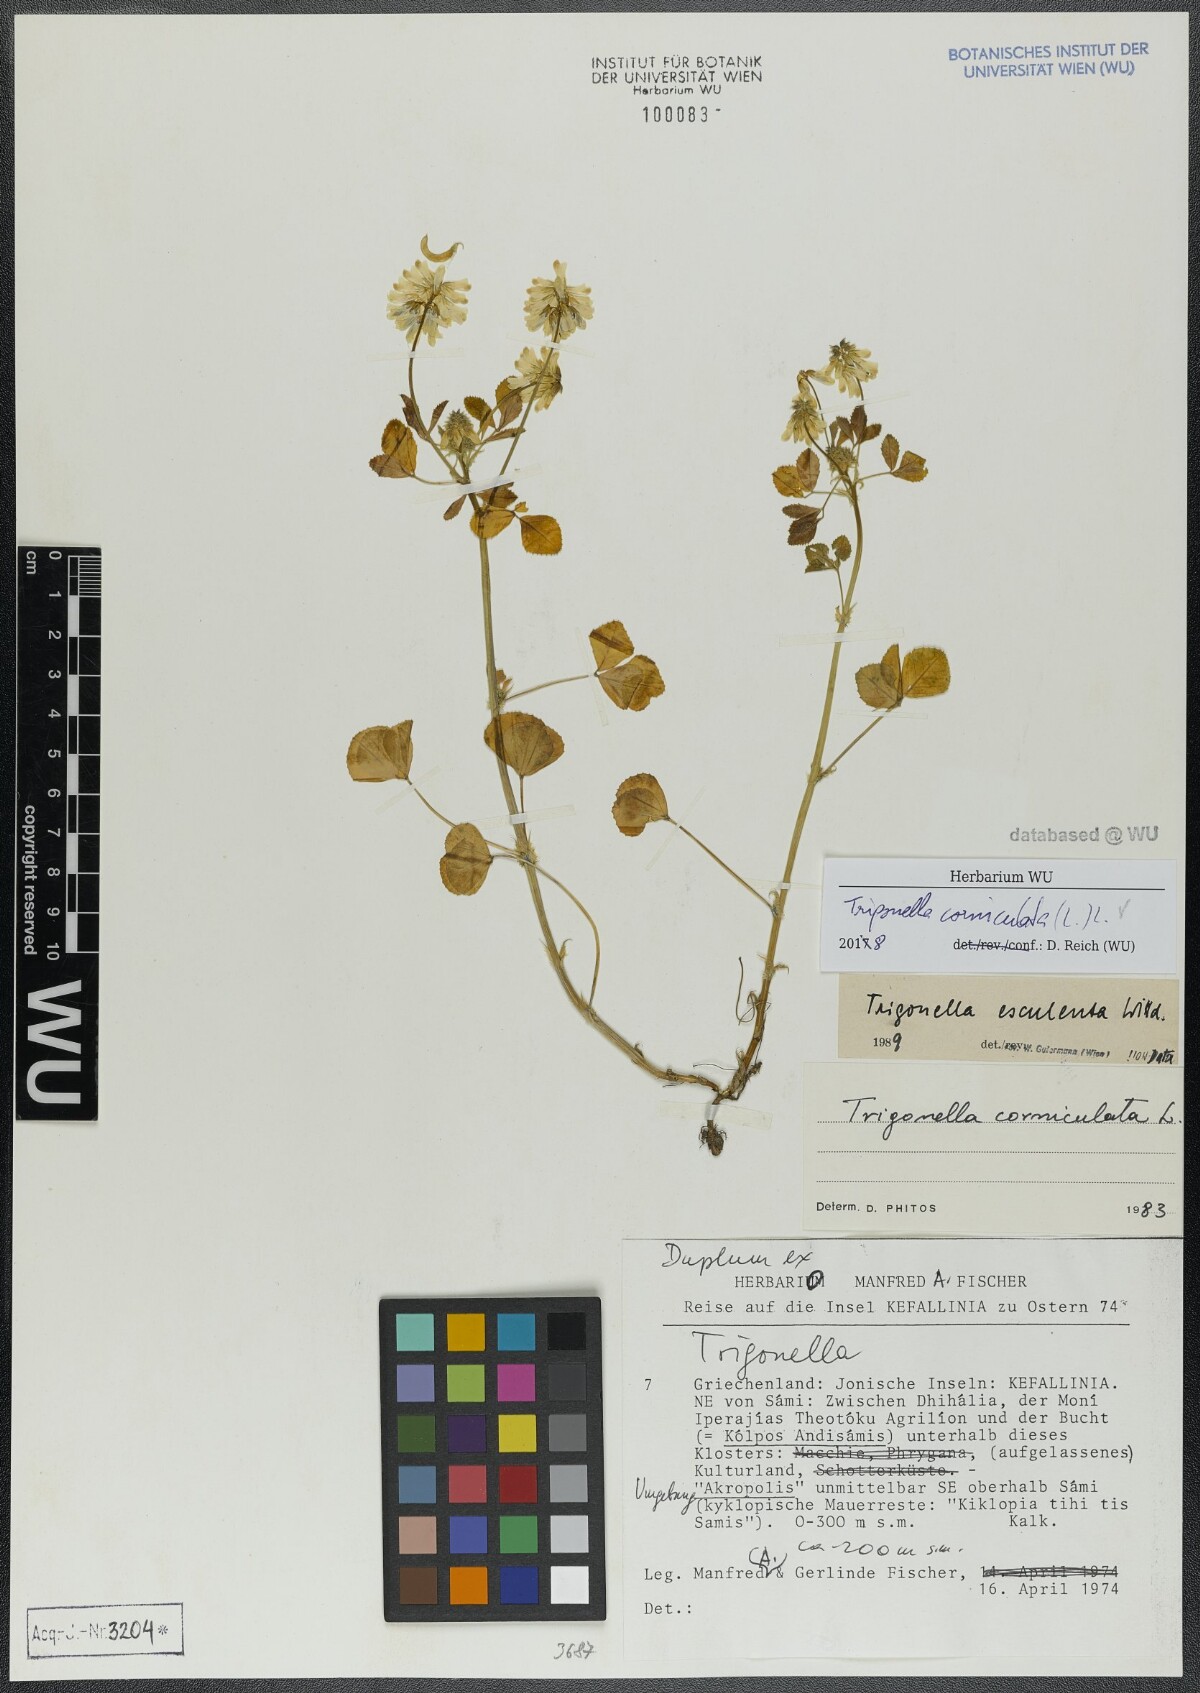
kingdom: Plantae
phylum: Tracheophyta
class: Magnoliopsida
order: Fabales
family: Fabaceae
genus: Trigonella
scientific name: Trigonella balansae
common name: Sickle-fruited fenugreek
